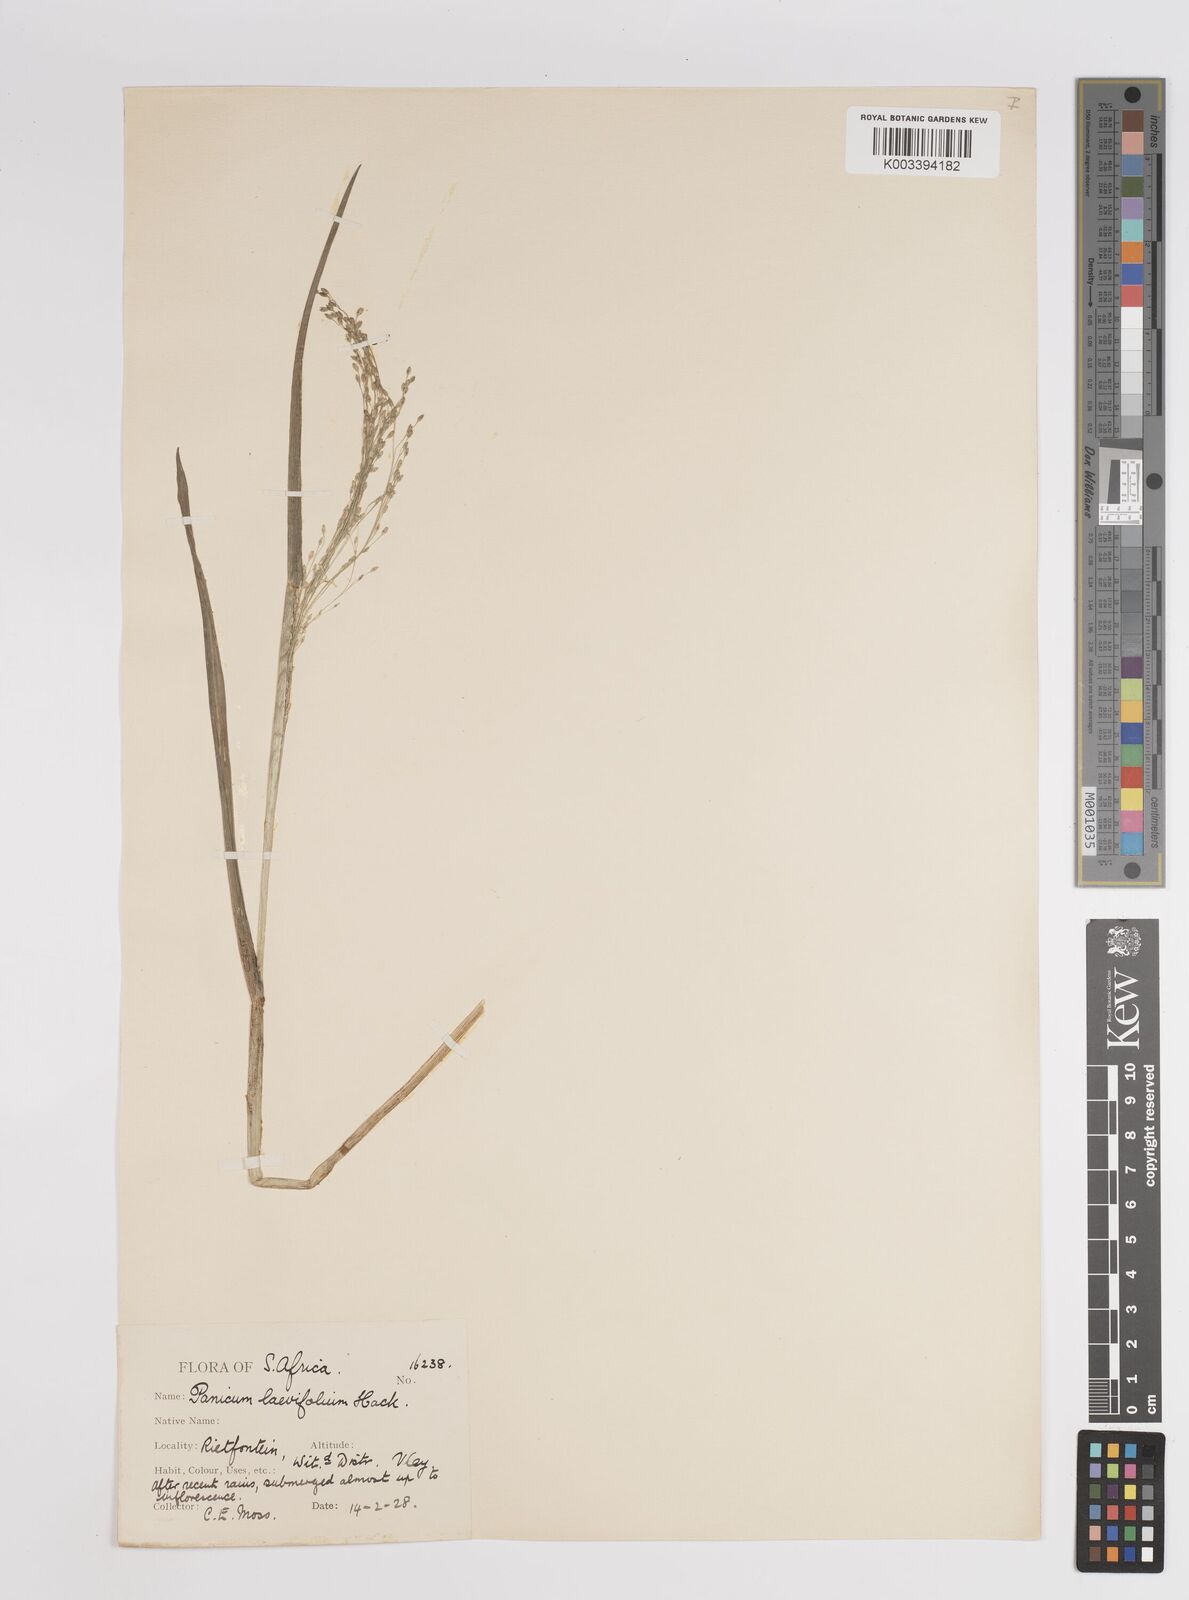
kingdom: Plantae
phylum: Tracheophyta
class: Liliopsida
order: Poales
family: Poaceae
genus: Panicum
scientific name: Panicum
